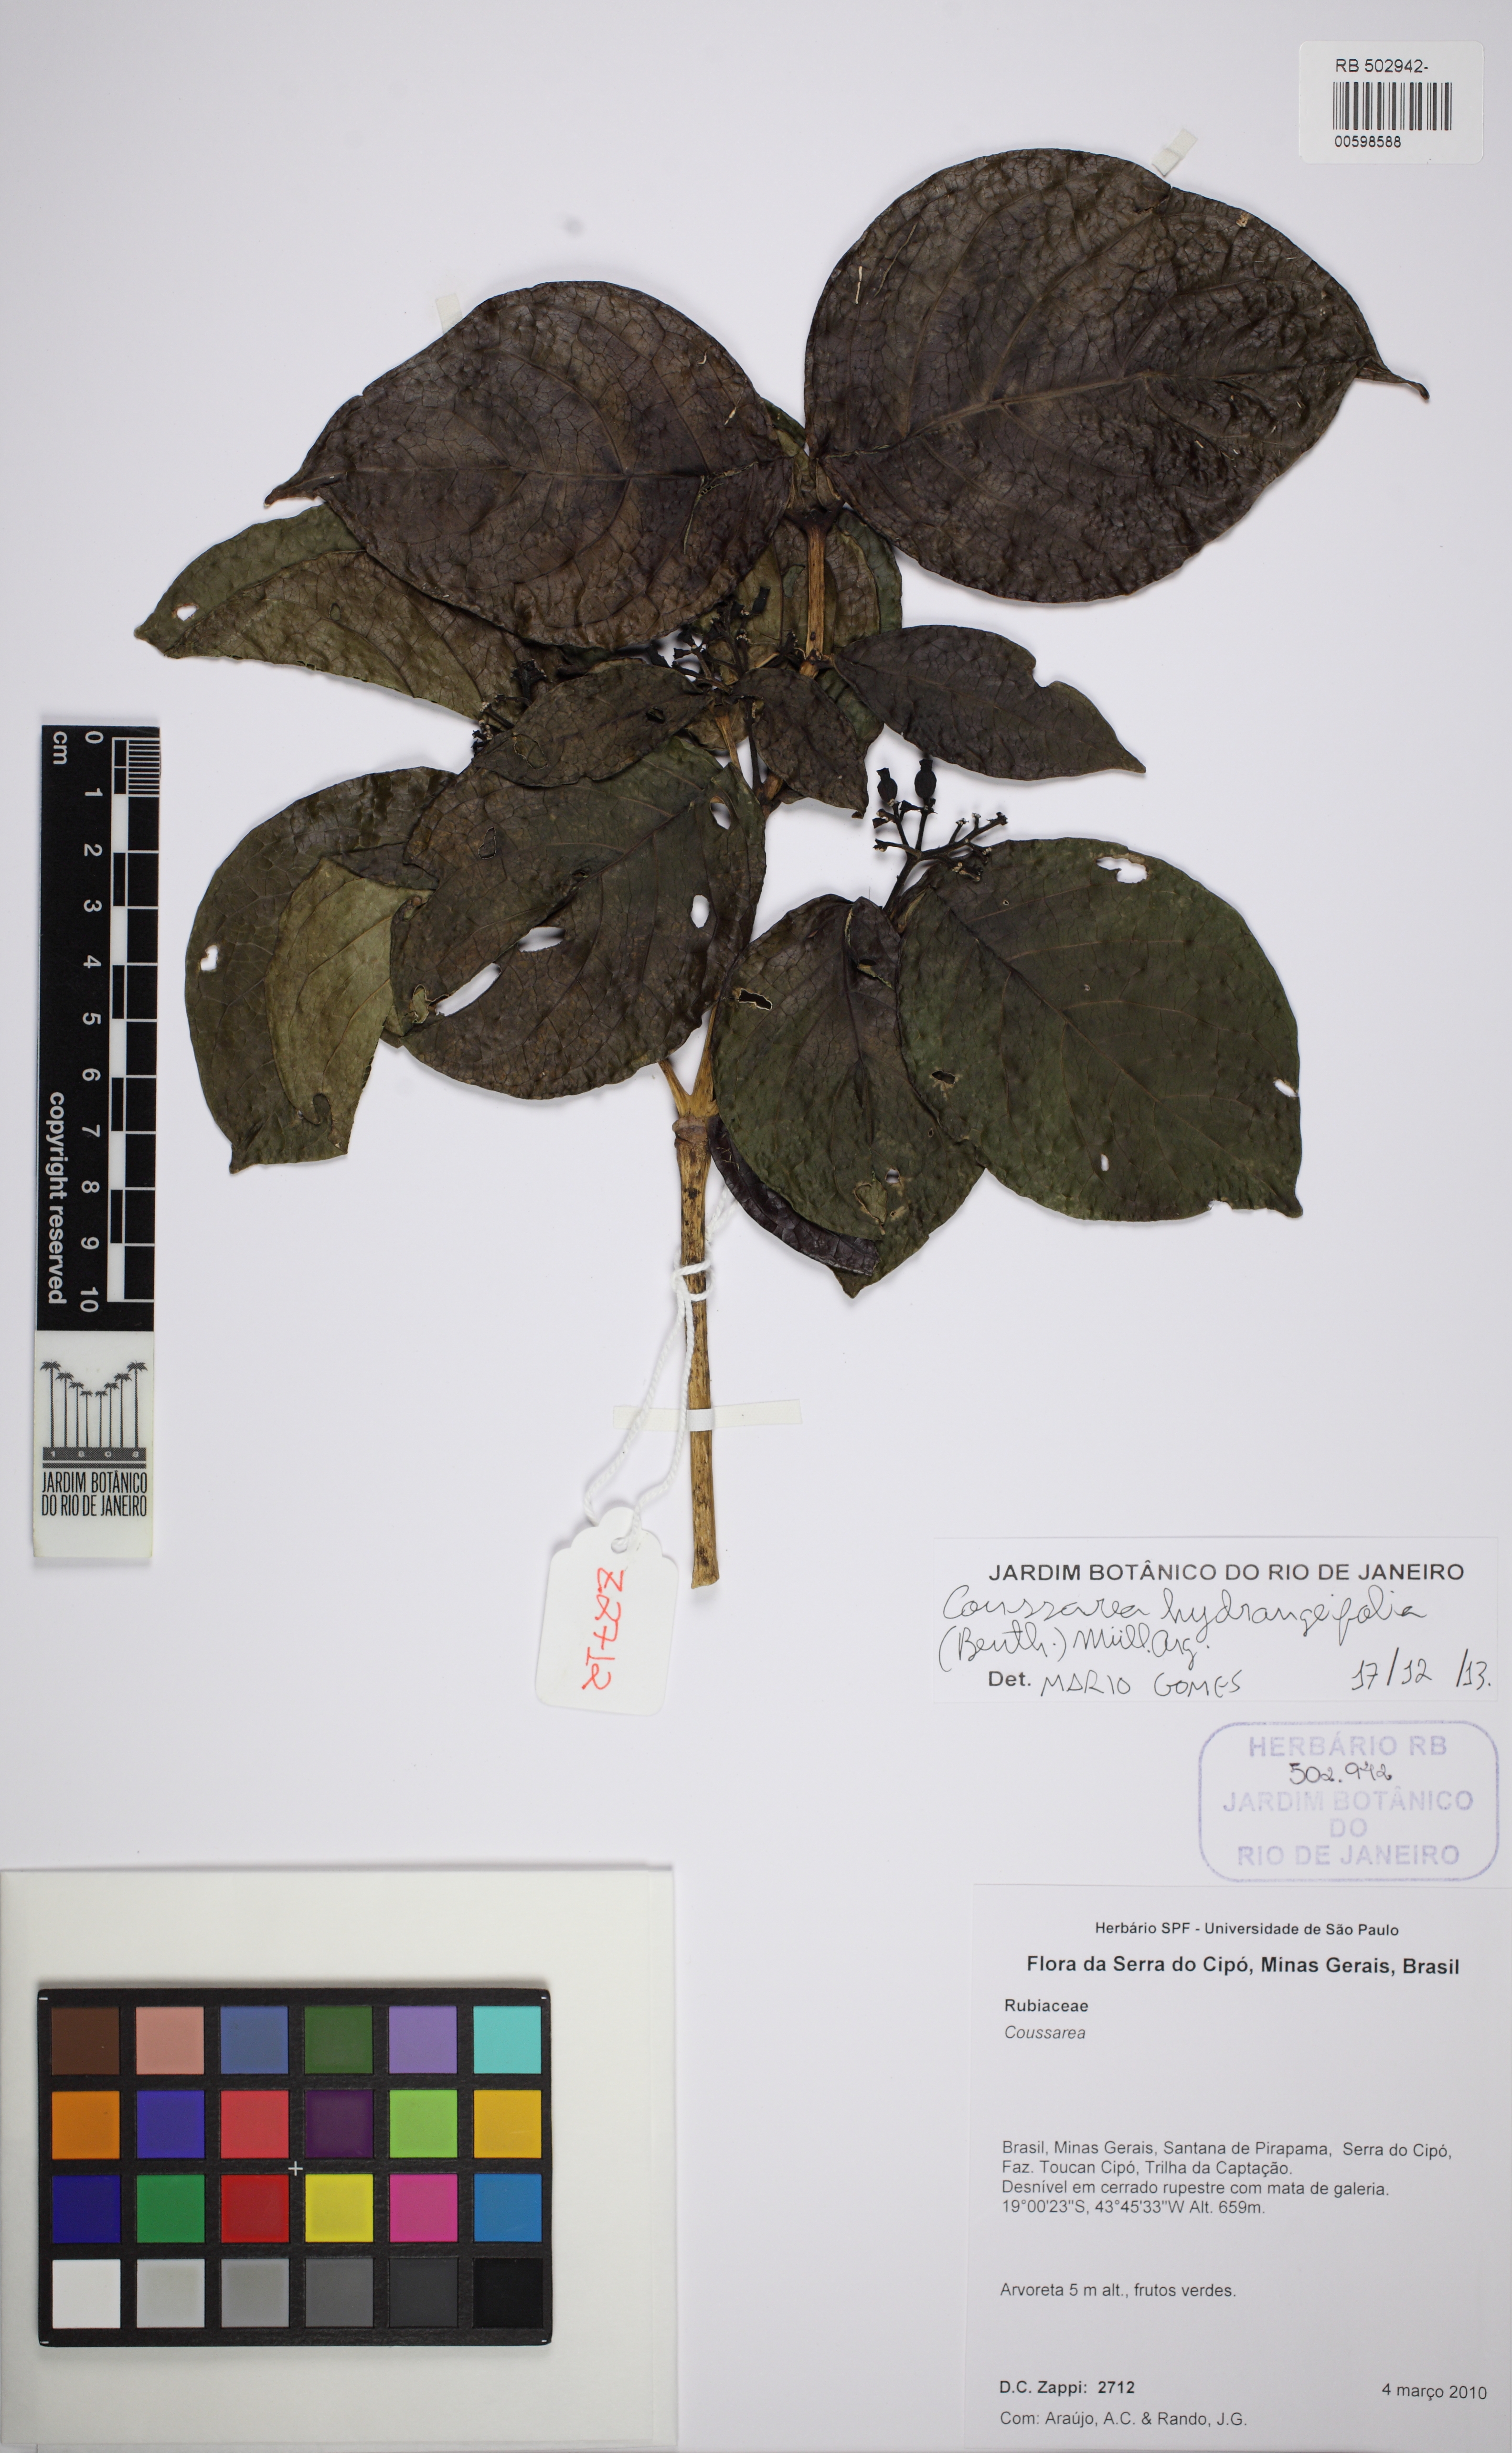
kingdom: Plantae
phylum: Tracheophyta
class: Magnoliopsida
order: Gentianales
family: Rubiaceae
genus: Coussarea
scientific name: Coussarea hydrangeifolia
